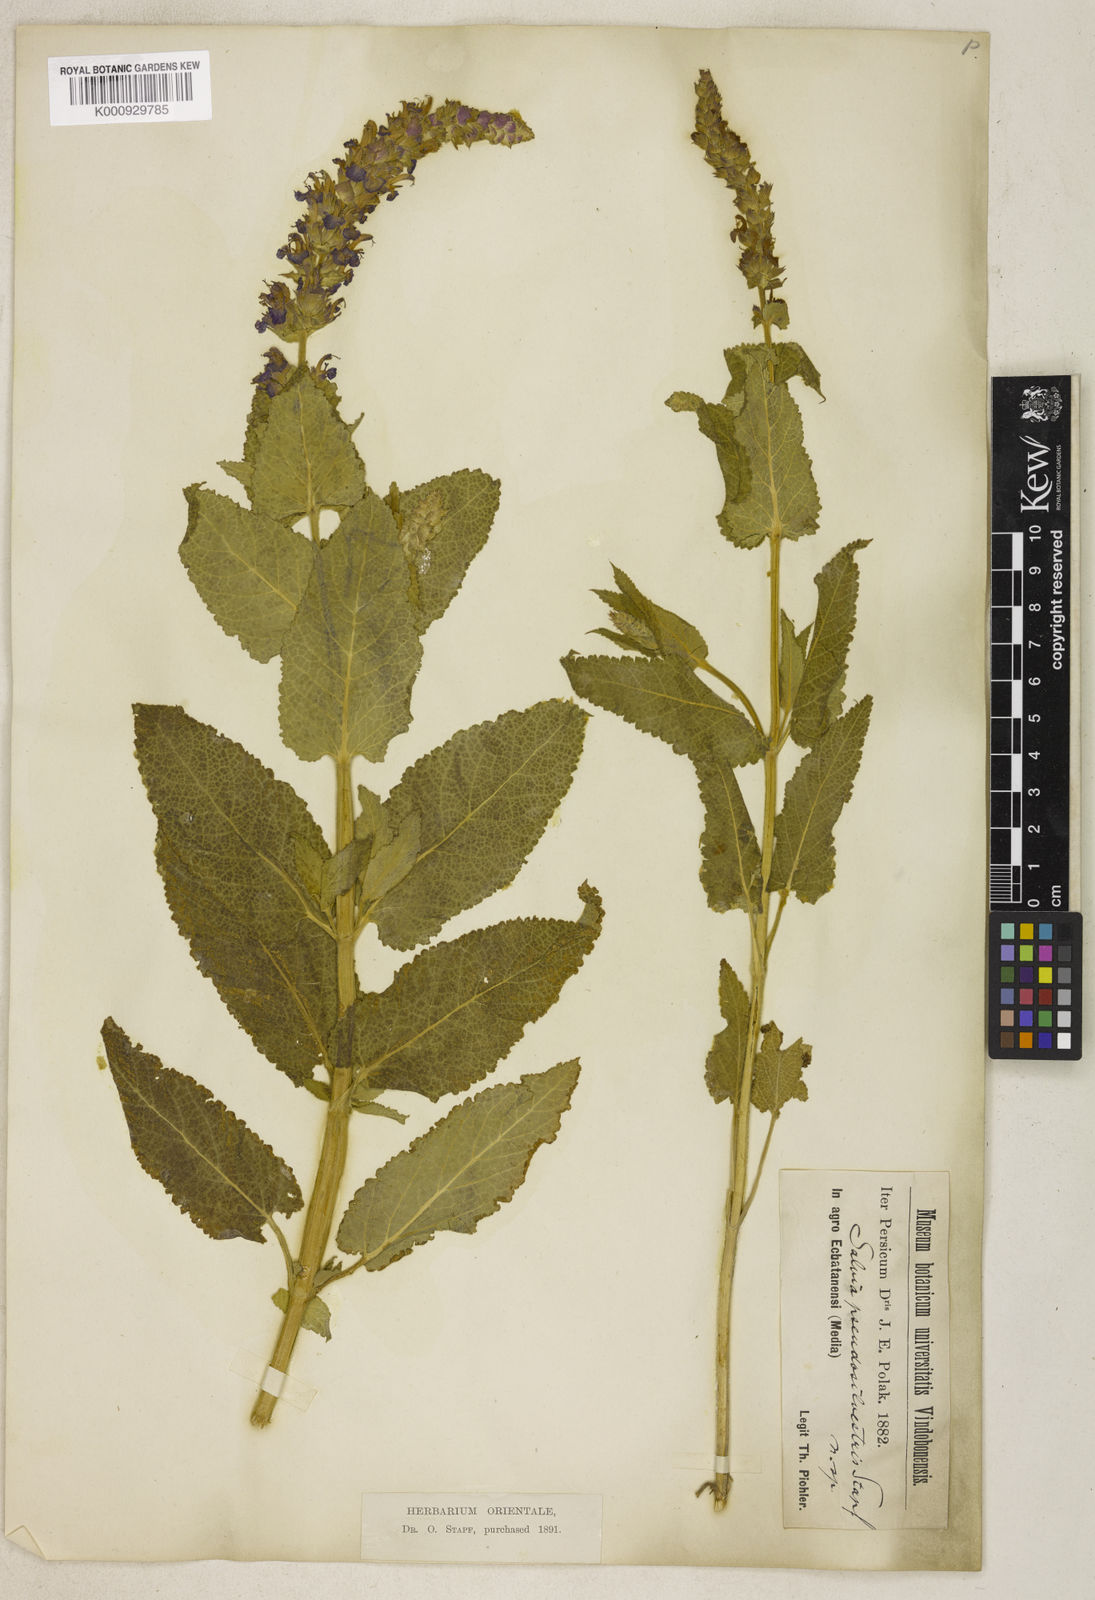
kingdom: Plantae
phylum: Tracheophyta
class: Magnoliopsida
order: Lamiales
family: Lamiaceae
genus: Salvia
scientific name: Salvia nemorosa
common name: Balkan clary
